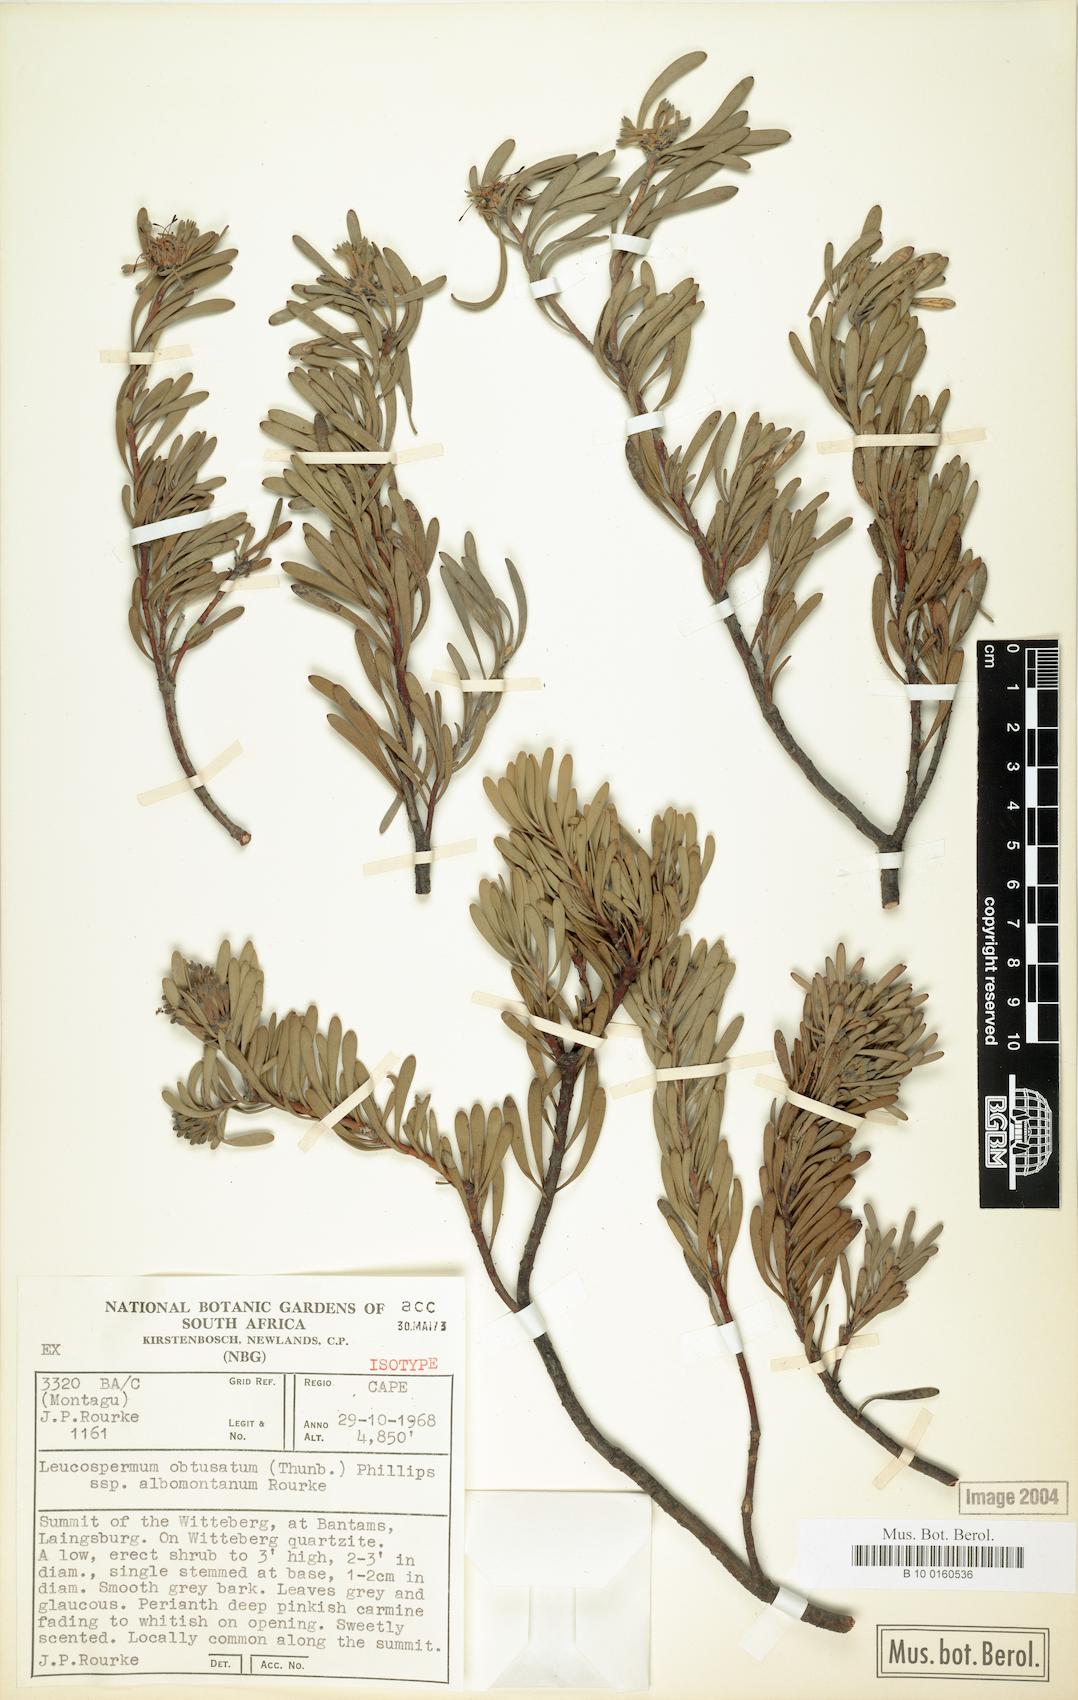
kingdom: Plantae
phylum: Tracheophyta
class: Magnoliopsida
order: Proteales
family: Proteaceae
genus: Vexatorella
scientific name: Vexatorella obtusata
